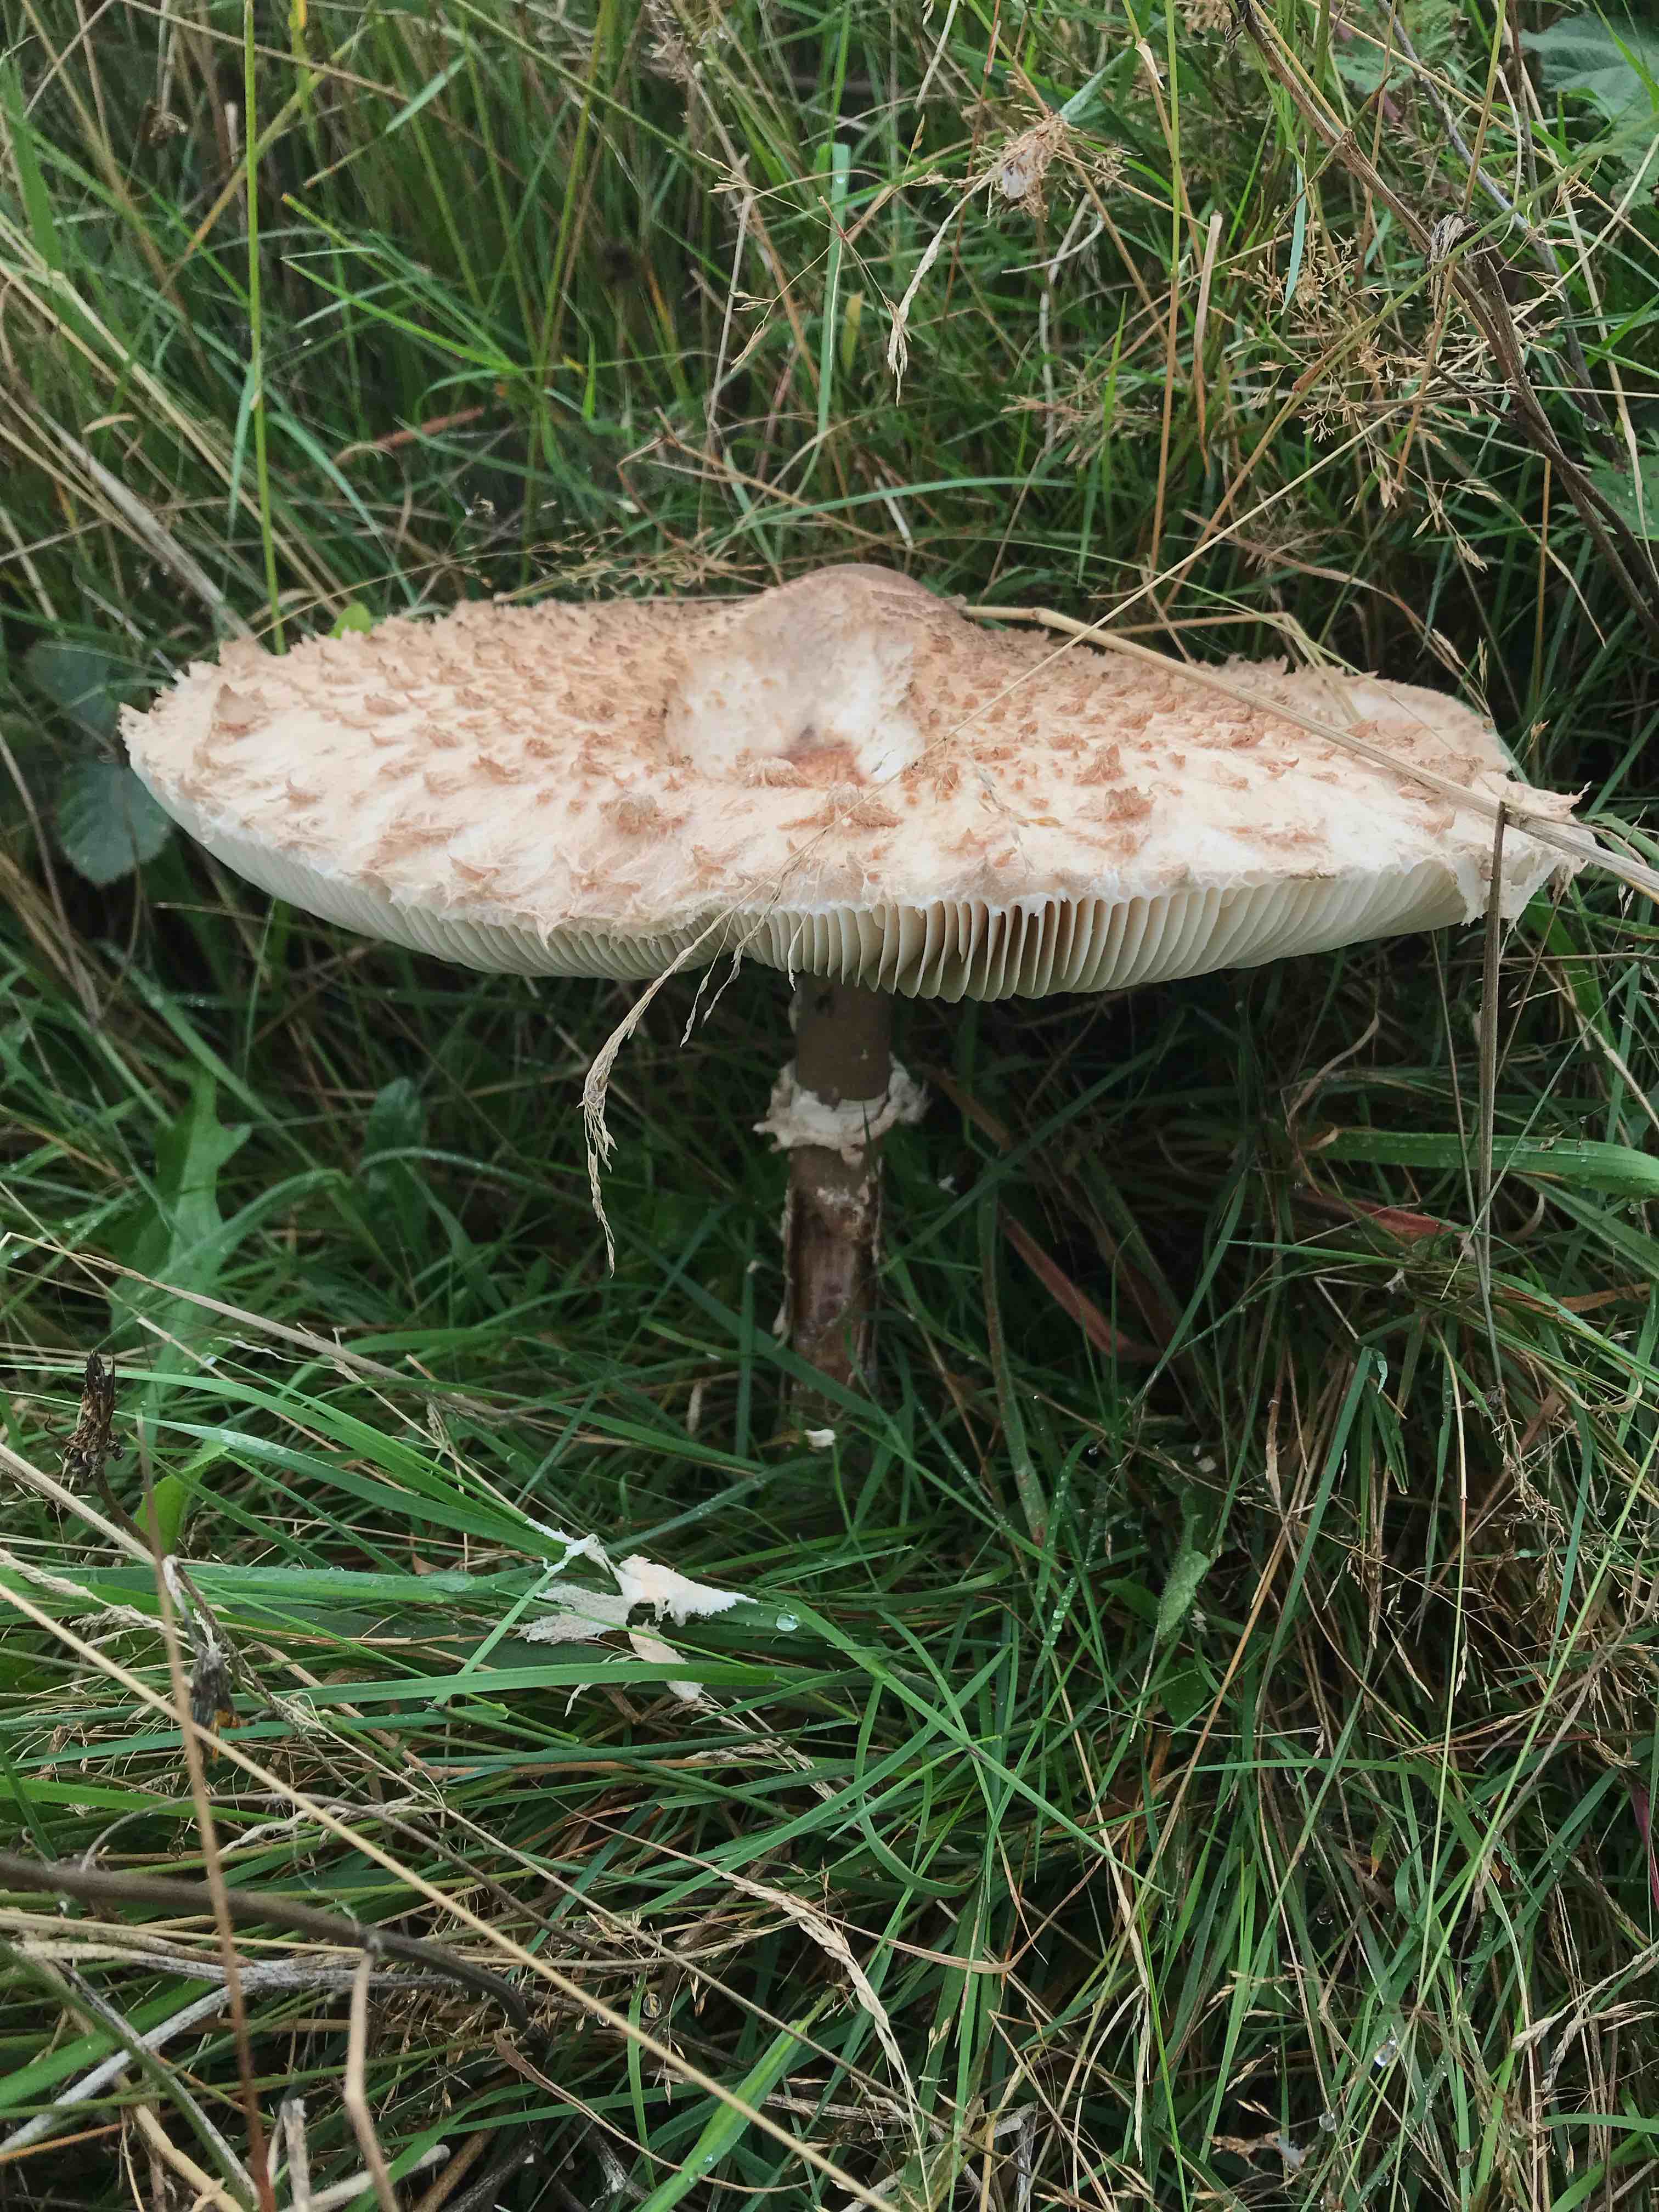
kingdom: Fungi
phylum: Basidiomycota
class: Agaricomycetes
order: Agaricales
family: Agaricaceae
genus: Macrolepiota
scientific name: Macrolepiota procera
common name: stor kæmpeparasolhat
